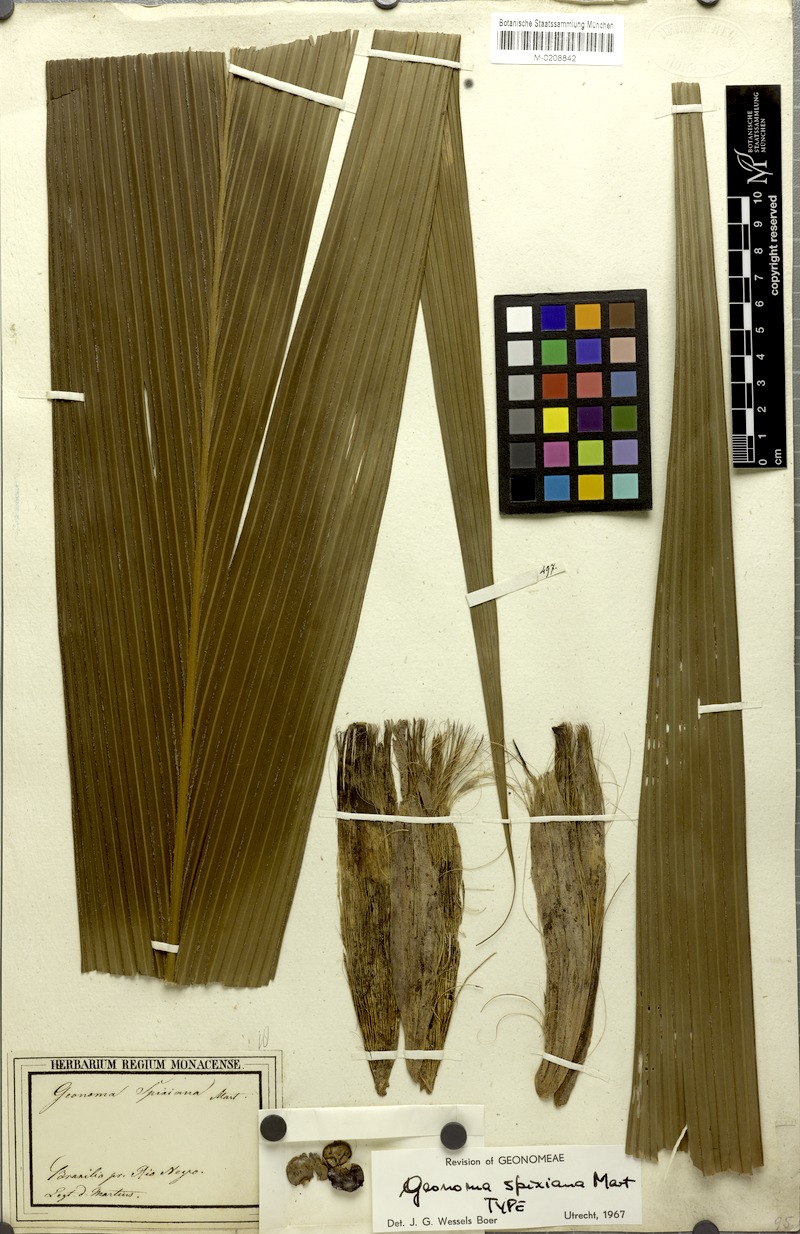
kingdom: Plantae
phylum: Tracheophyta
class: Liliopsida
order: Arecales
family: Arecaceae
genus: Geonoma
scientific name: Geonoma maxima
